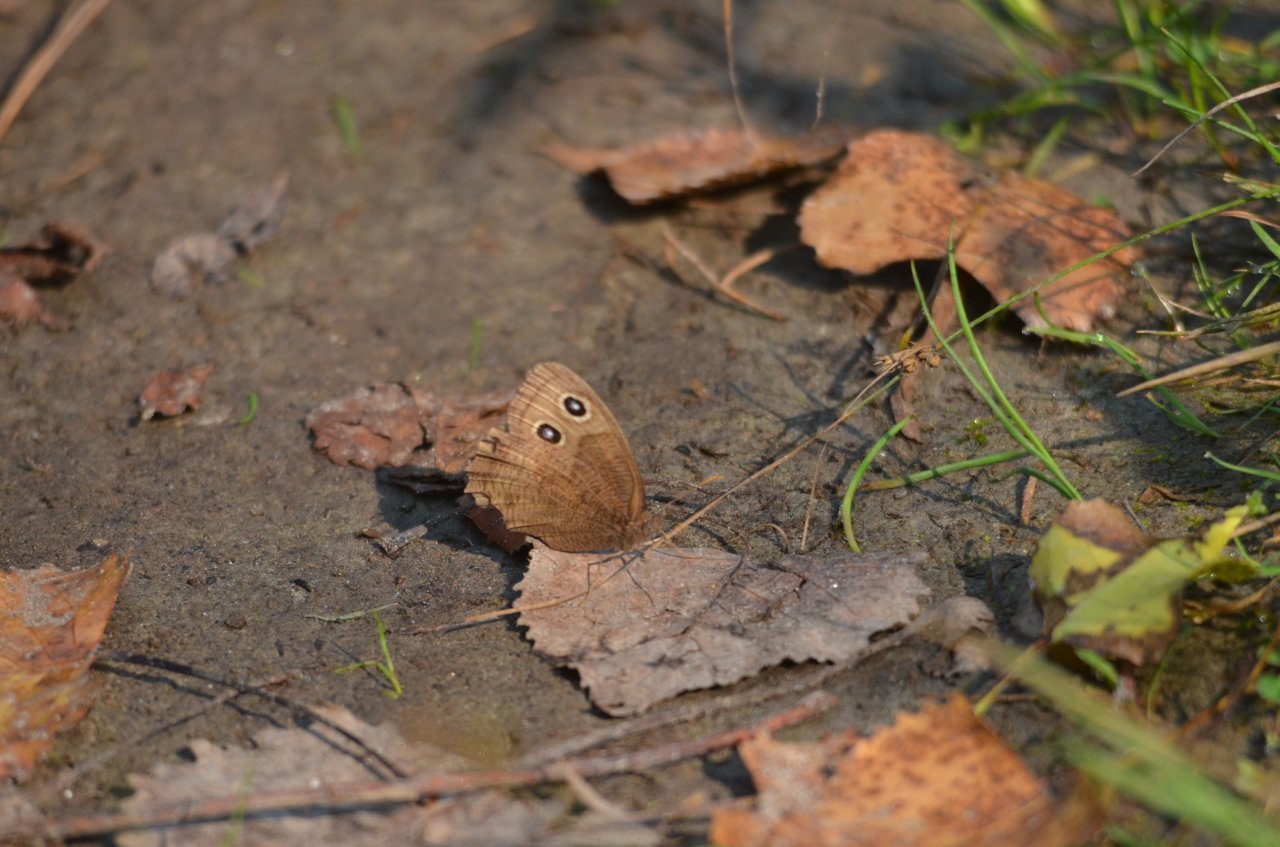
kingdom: Animalia
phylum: Arthropoda
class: Insecta
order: Lepidoptera
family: Nymphalidae
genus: Cercyonis
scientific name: Cercyonis pegala
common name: Common Wood-Nymph
